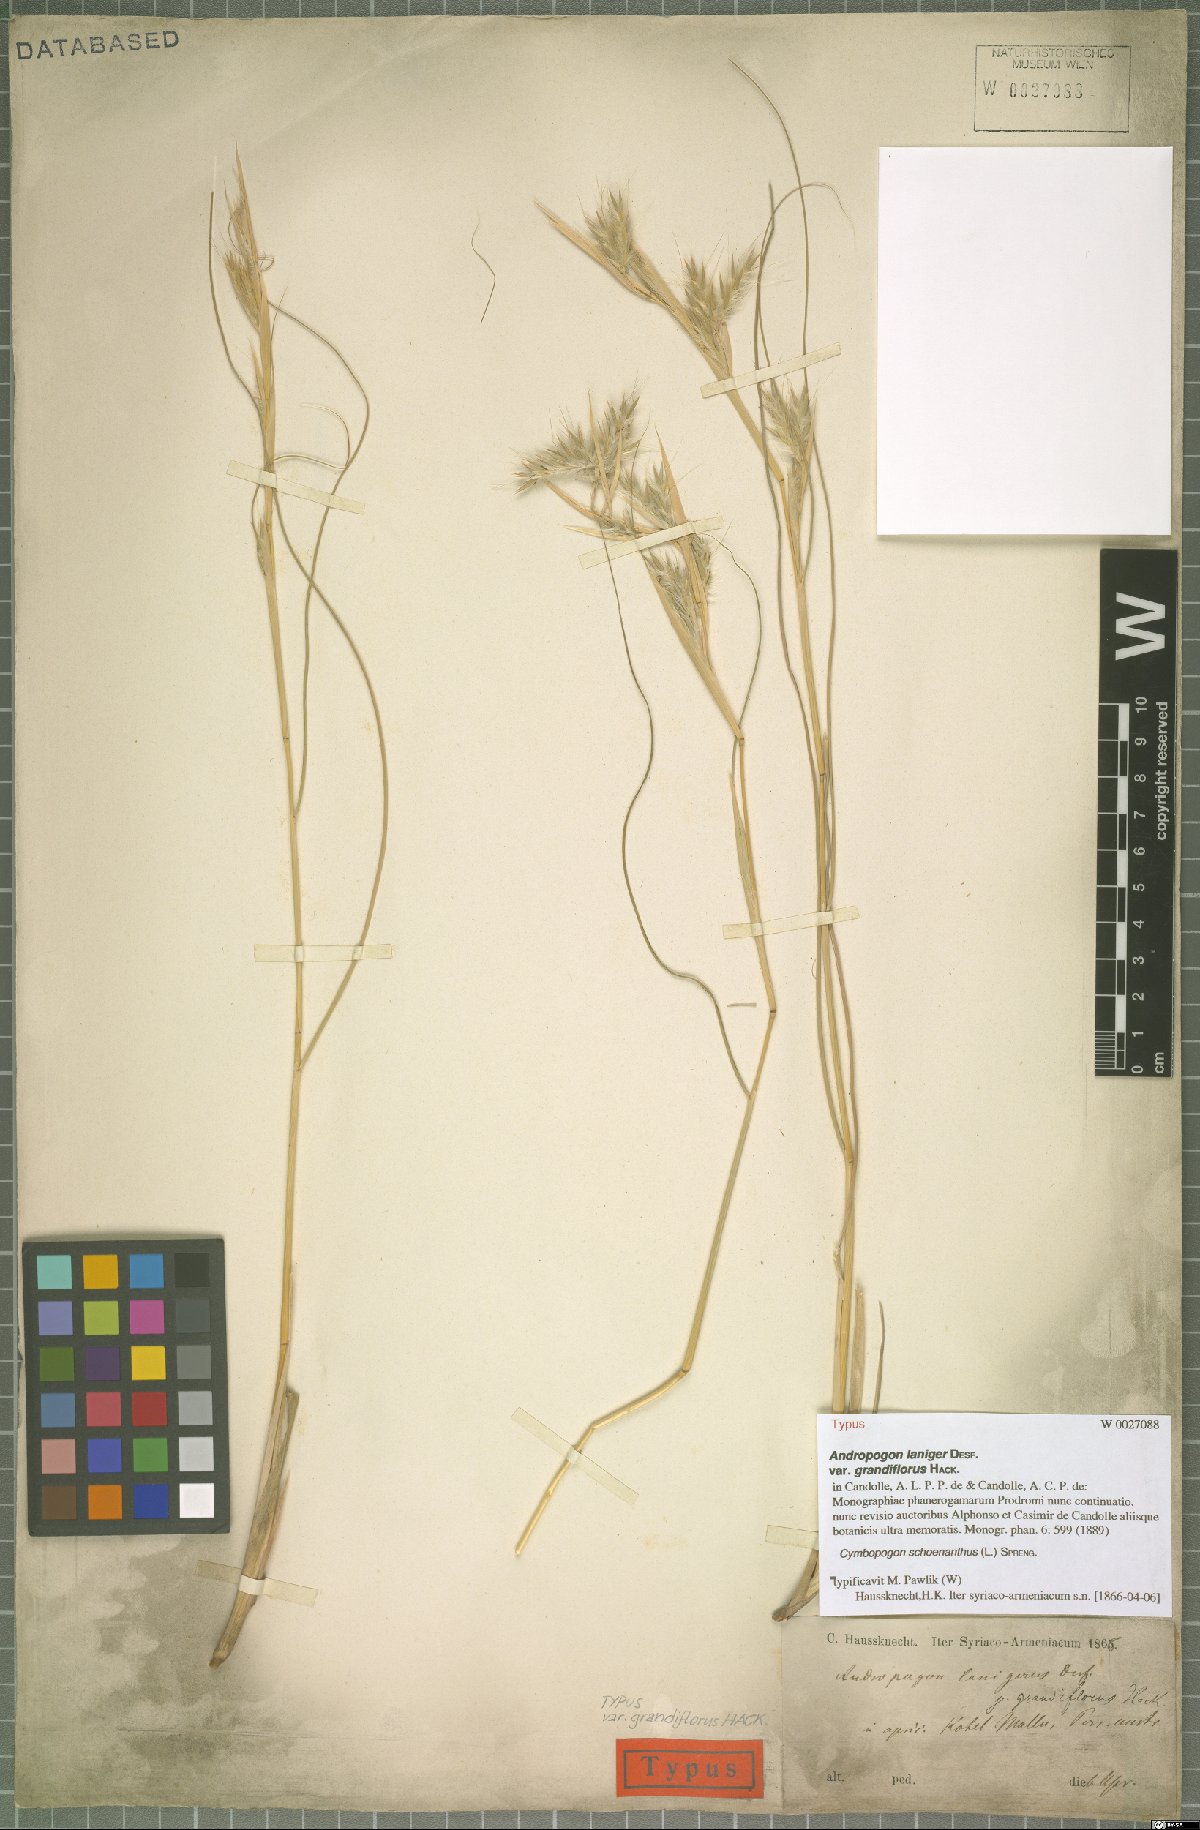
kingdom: Plantae
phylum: Tracheophyta
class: Liliopsida
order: Poales
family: Poaceae
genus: Cymbopogon
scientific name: Cymbopogon schoenanthus
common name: Geranium grass
